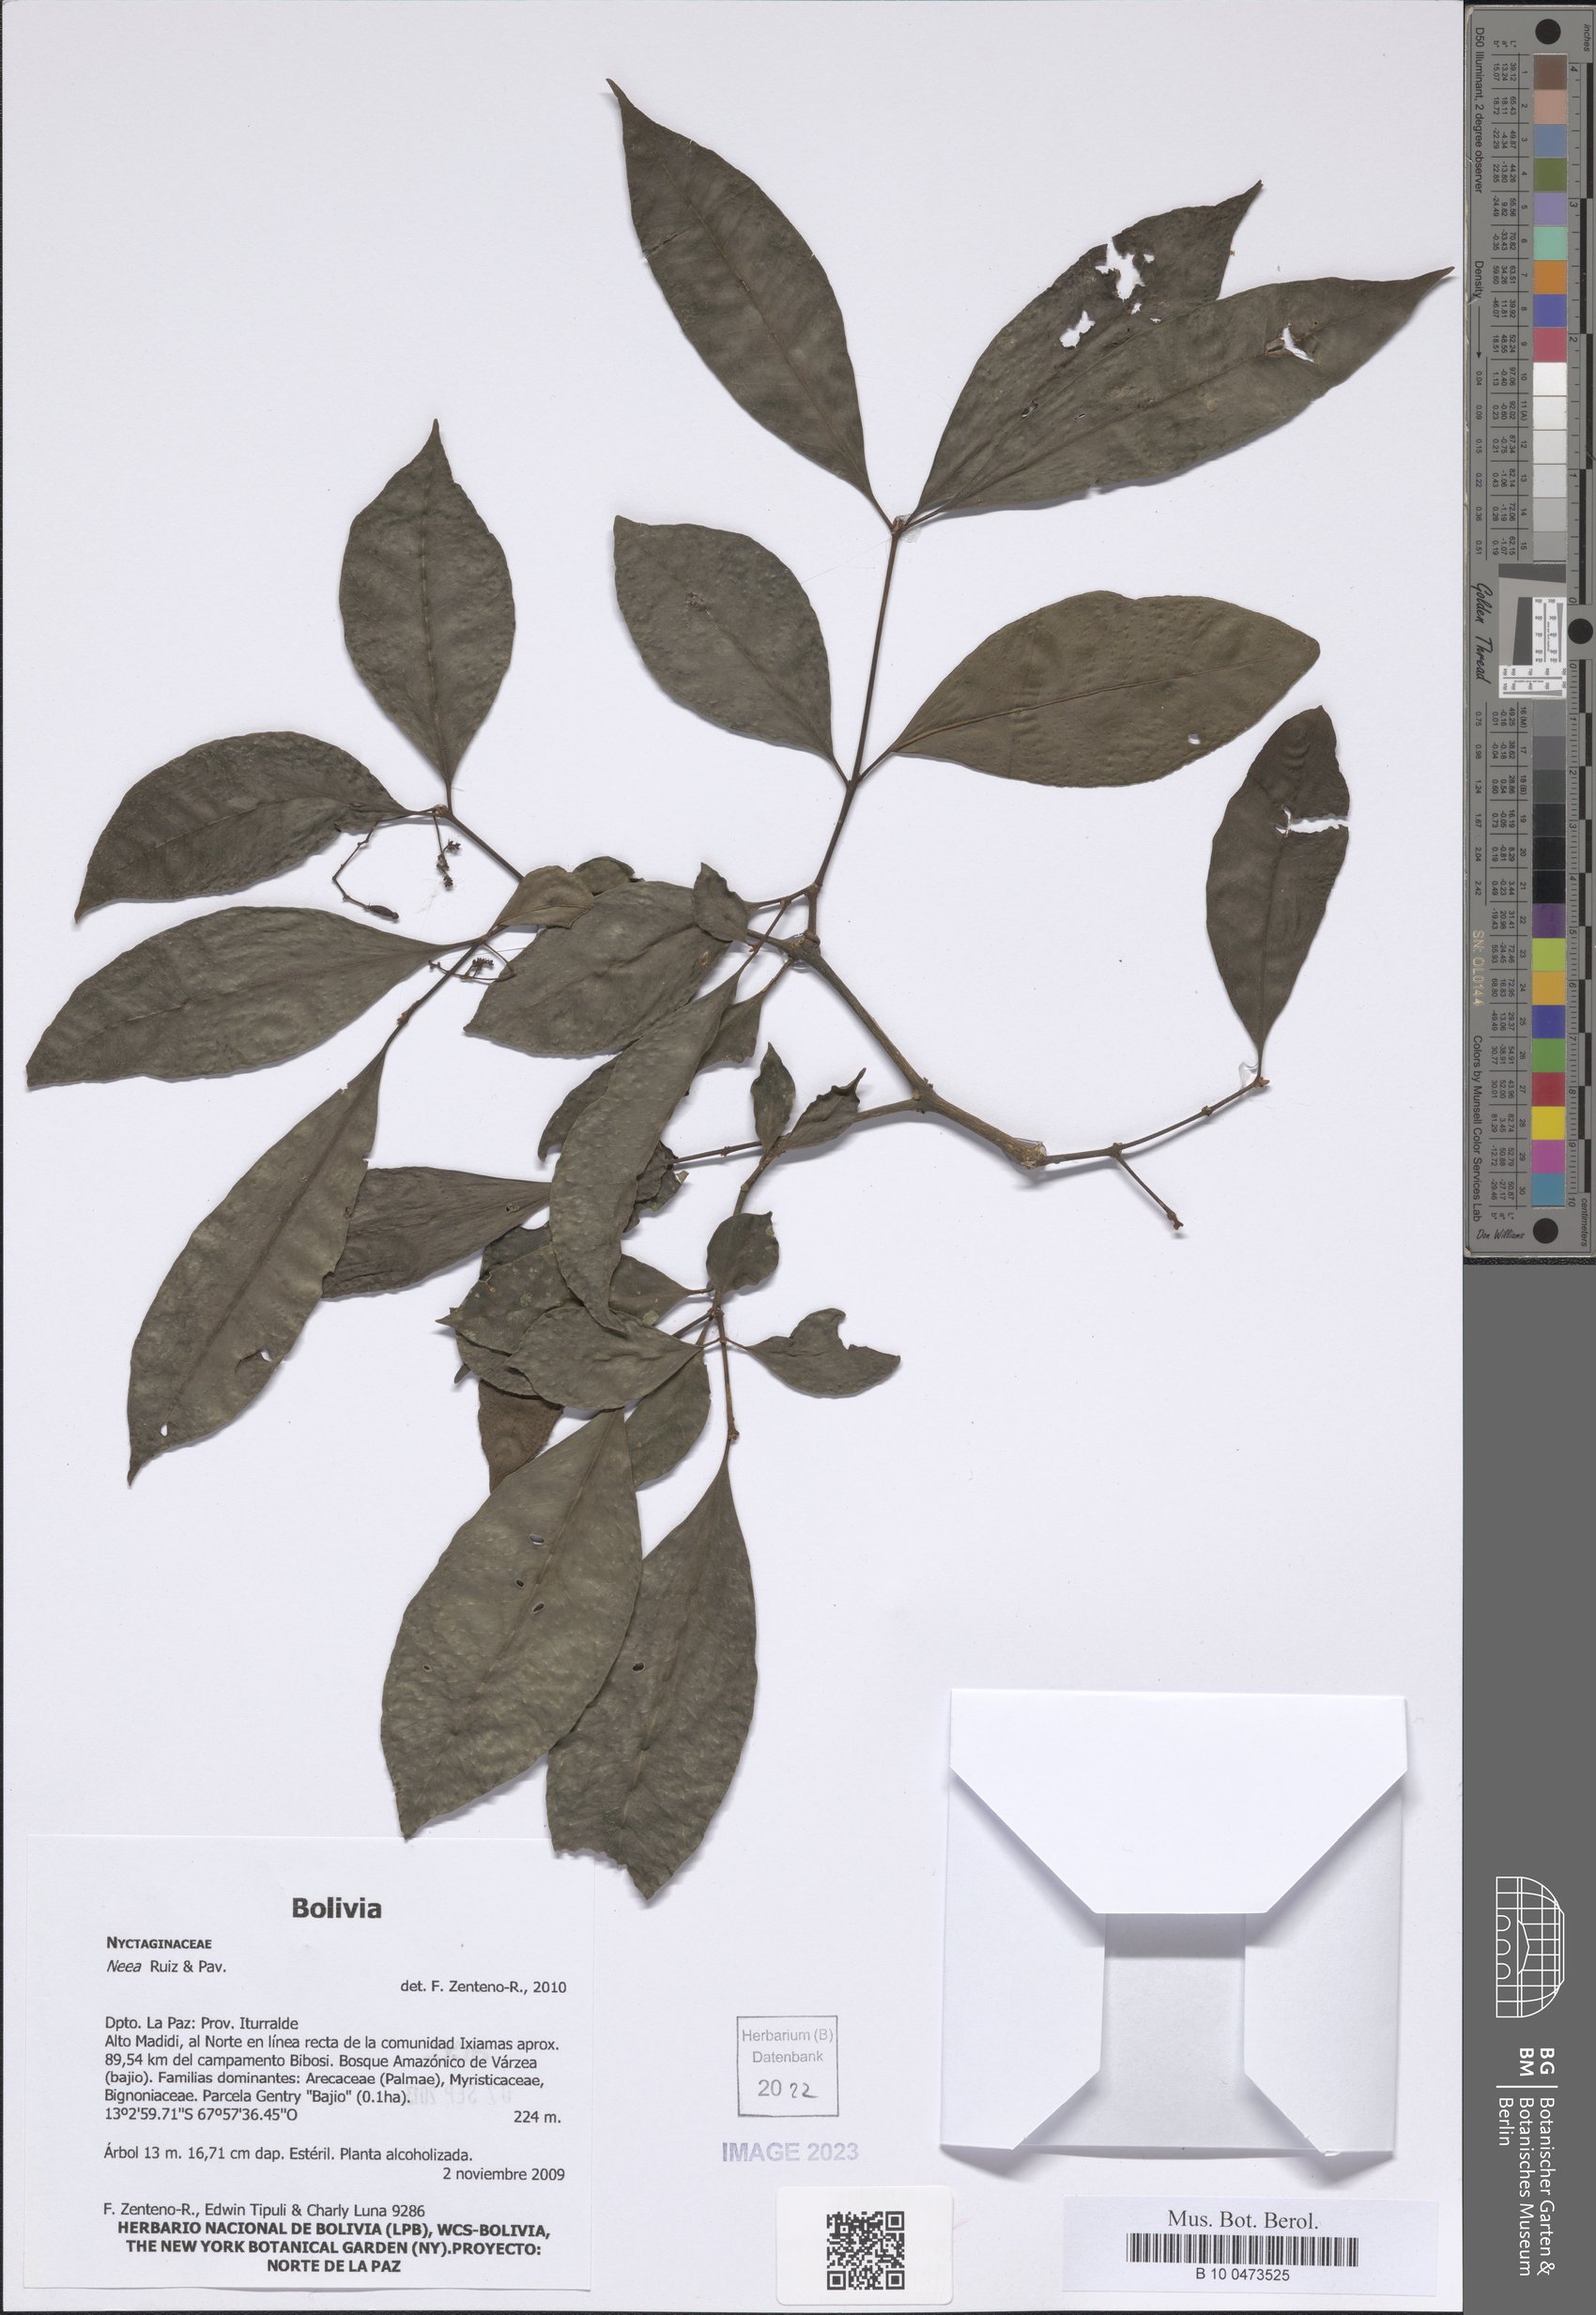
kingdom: Plantae
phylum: Tracheophyta
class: Magnoliopsida
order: Caryophyllales
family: Nyctaginaceae
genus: Neea
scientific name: Neea
